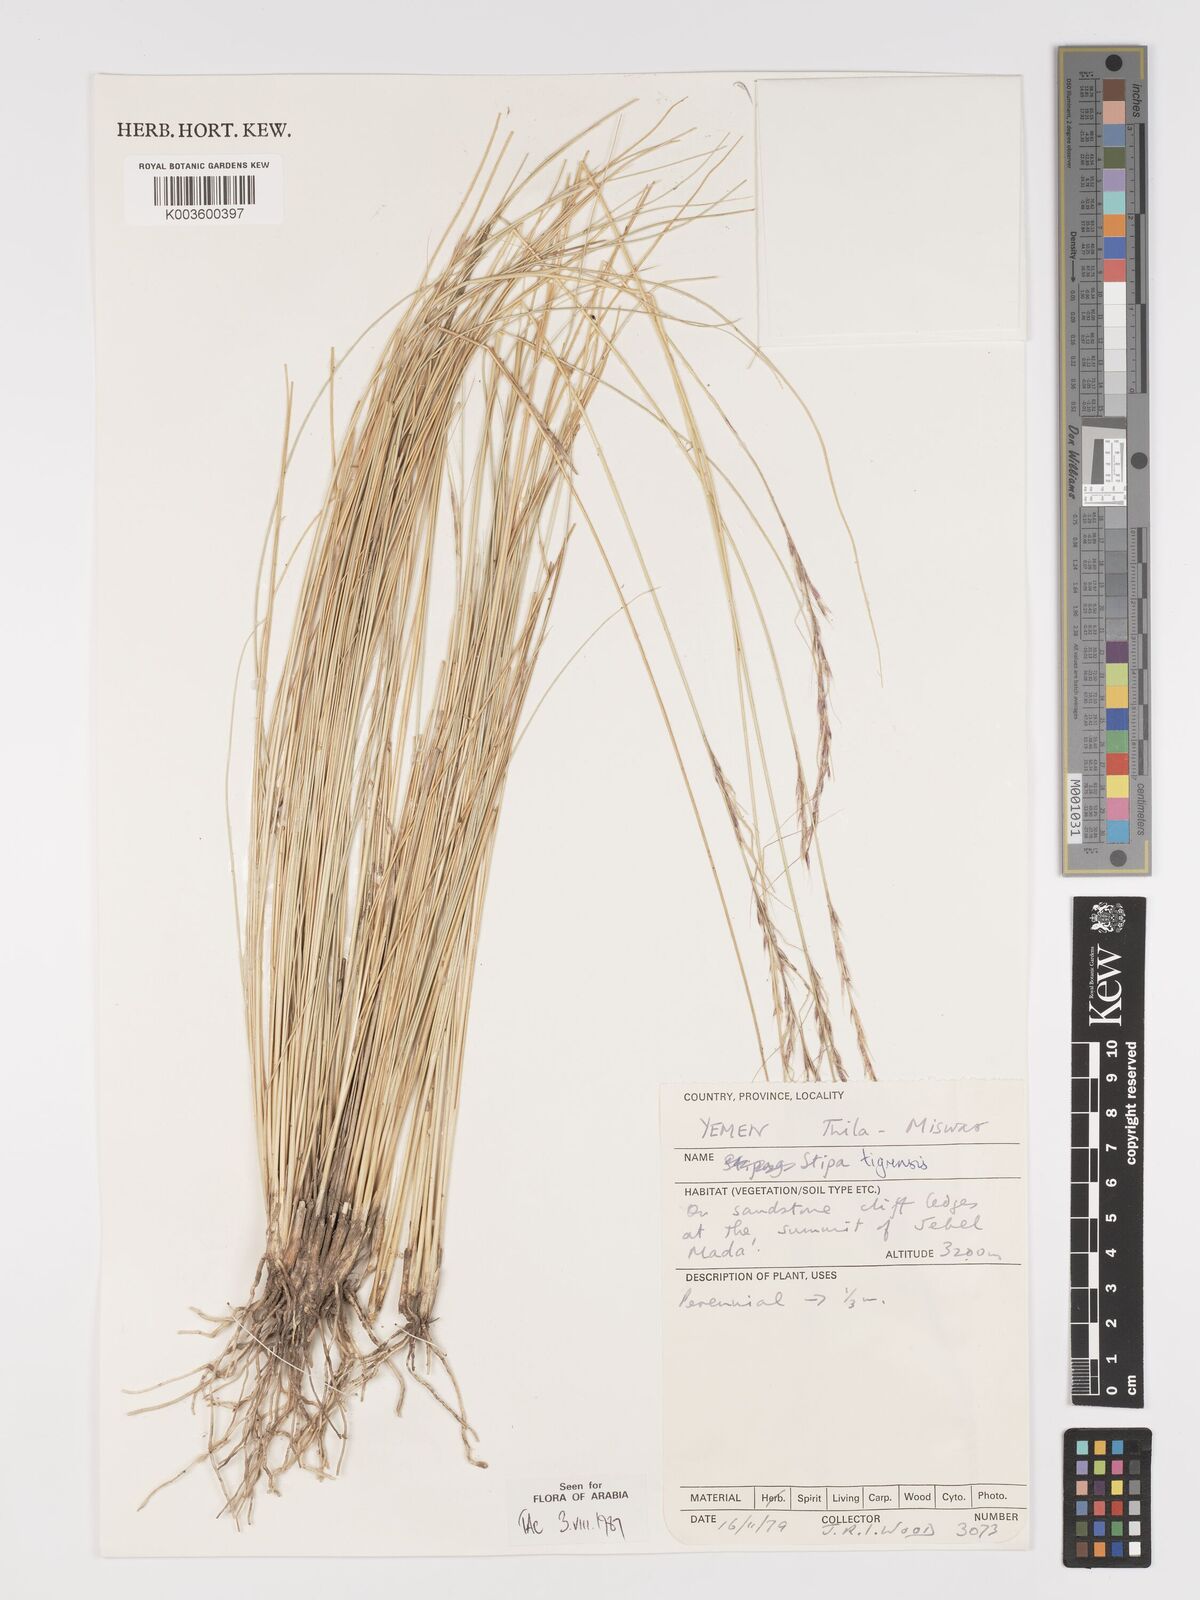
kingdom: Plantae
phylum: Tracheophyta
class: Liliopsida
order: Poales
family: Poaceae
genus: Stipa
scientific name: Stipa tigrensis
